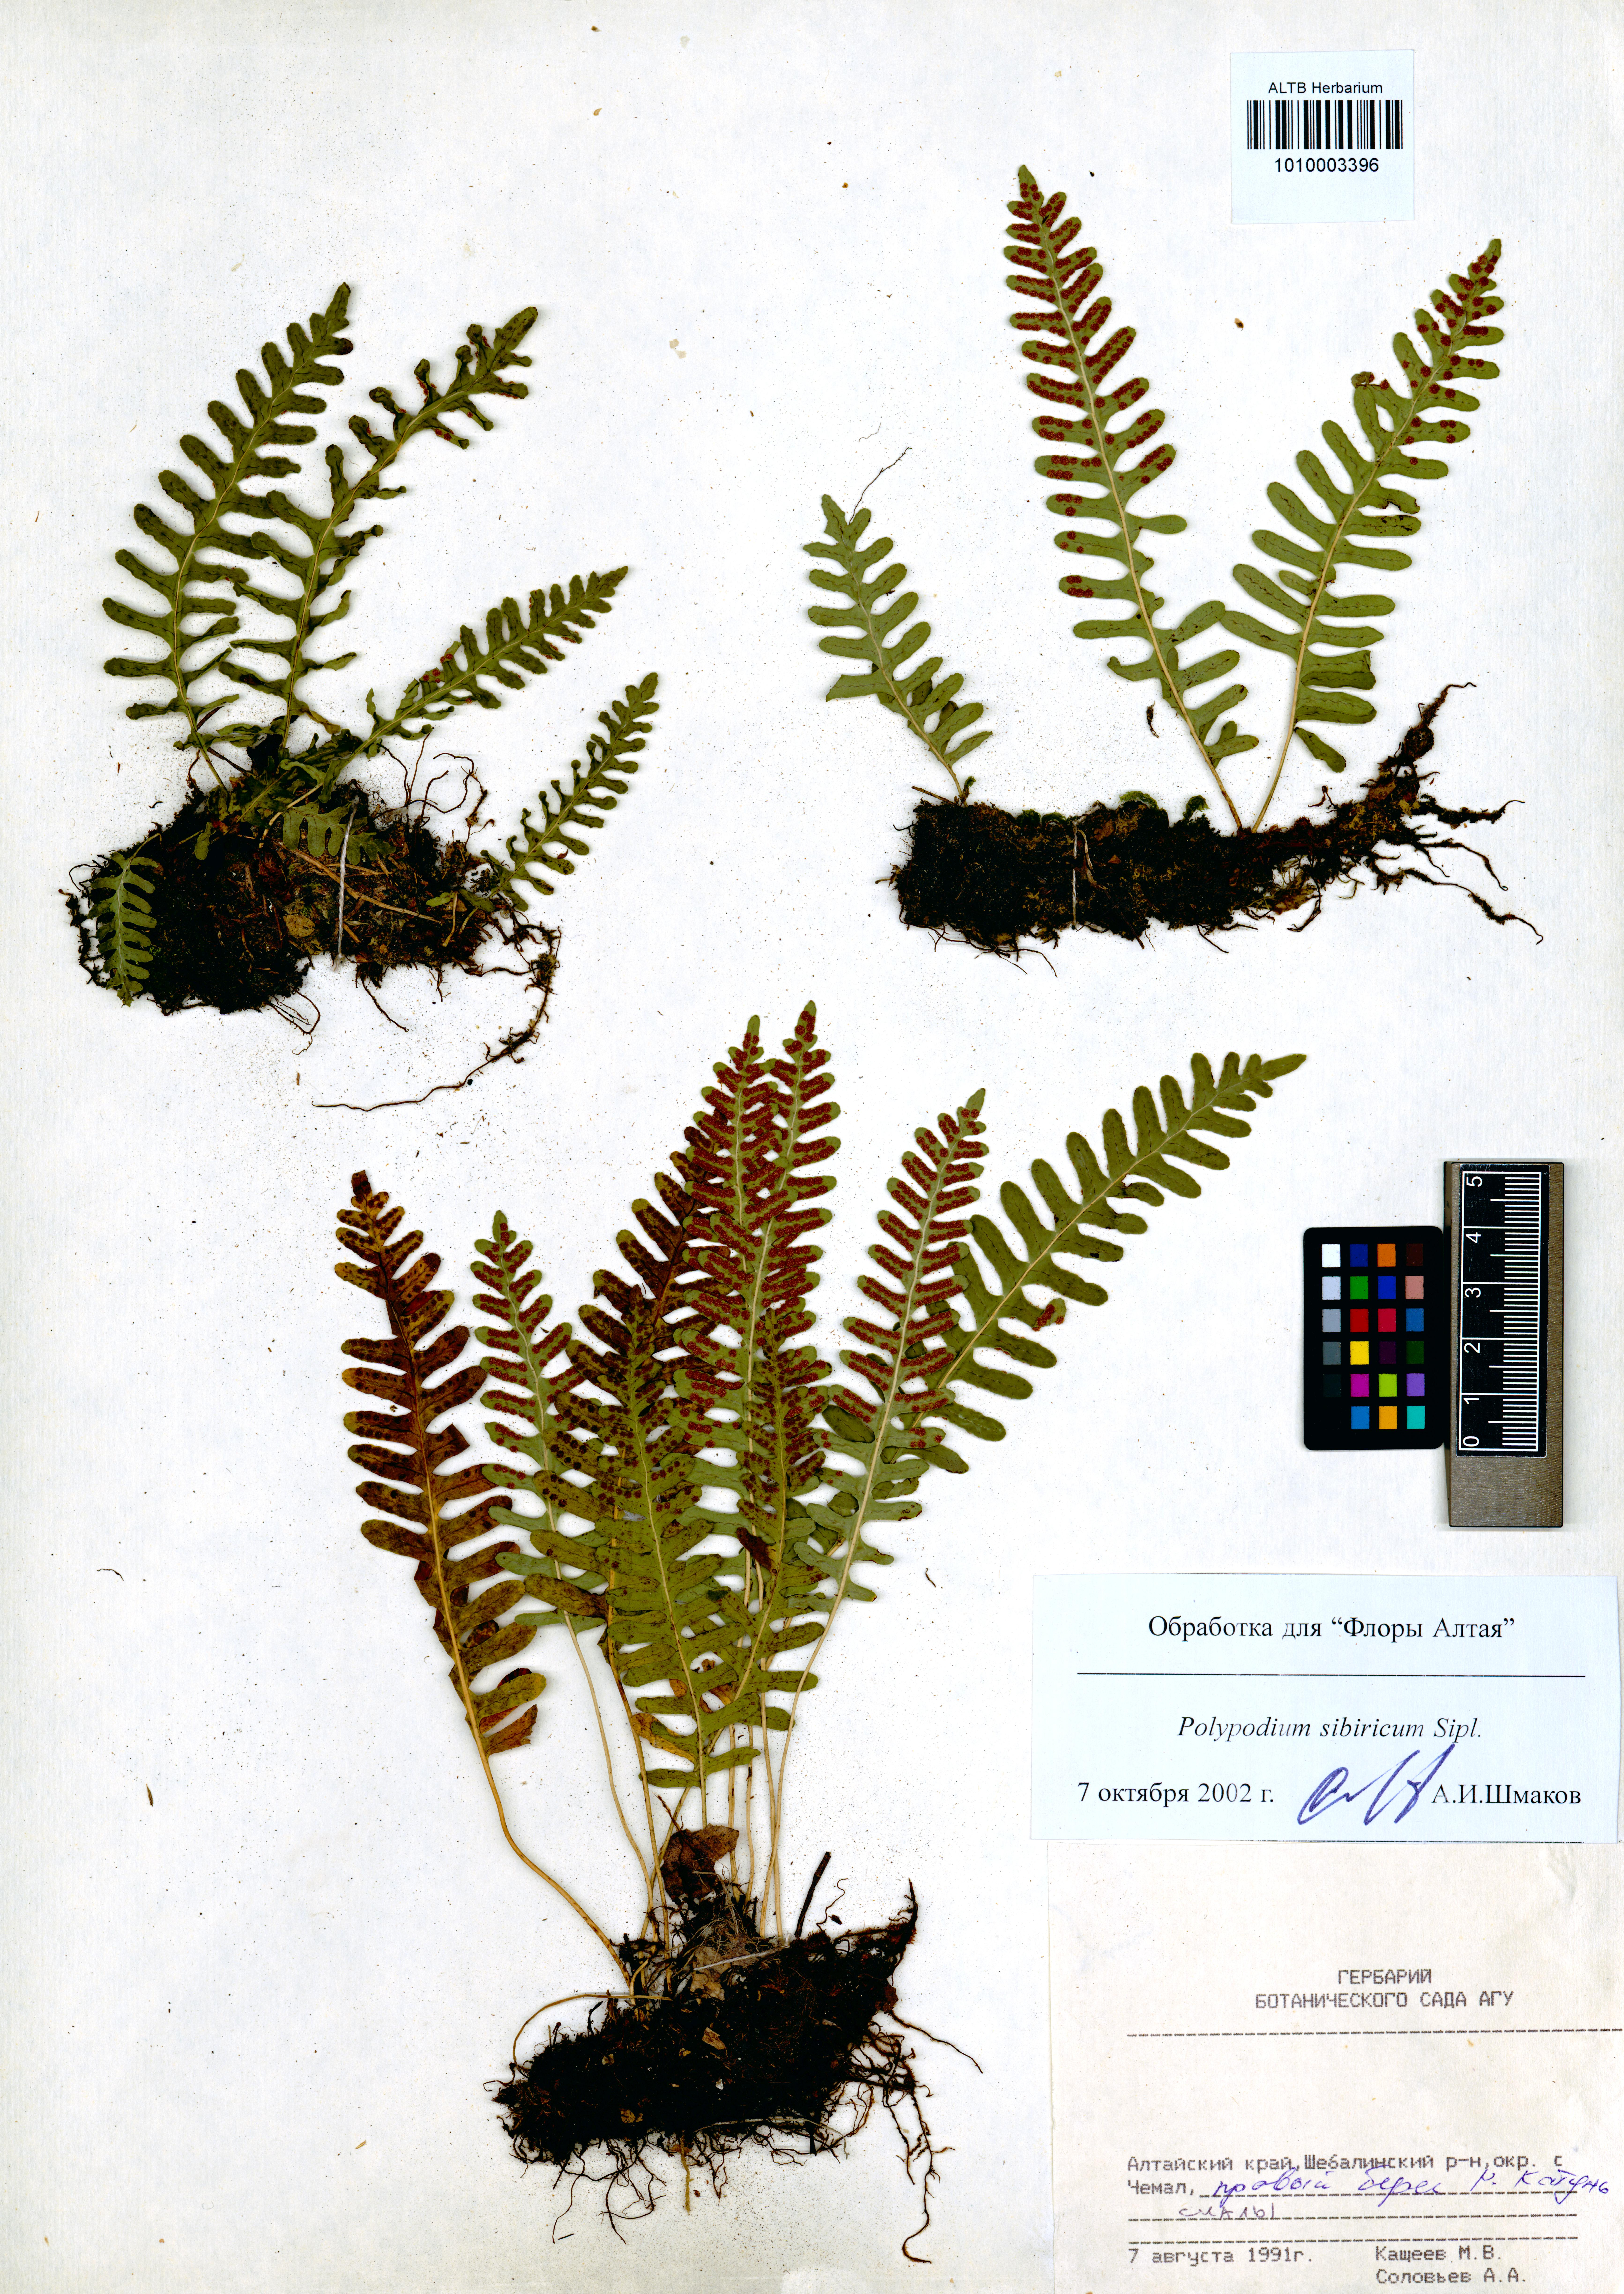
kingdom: Plantae
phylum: Tracheophyta
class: Polypodiopsida
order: Polypodiales
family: Dryopteridaceae
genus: Dryopteris
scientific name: Dryopteris filix-mas
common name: Male fern
